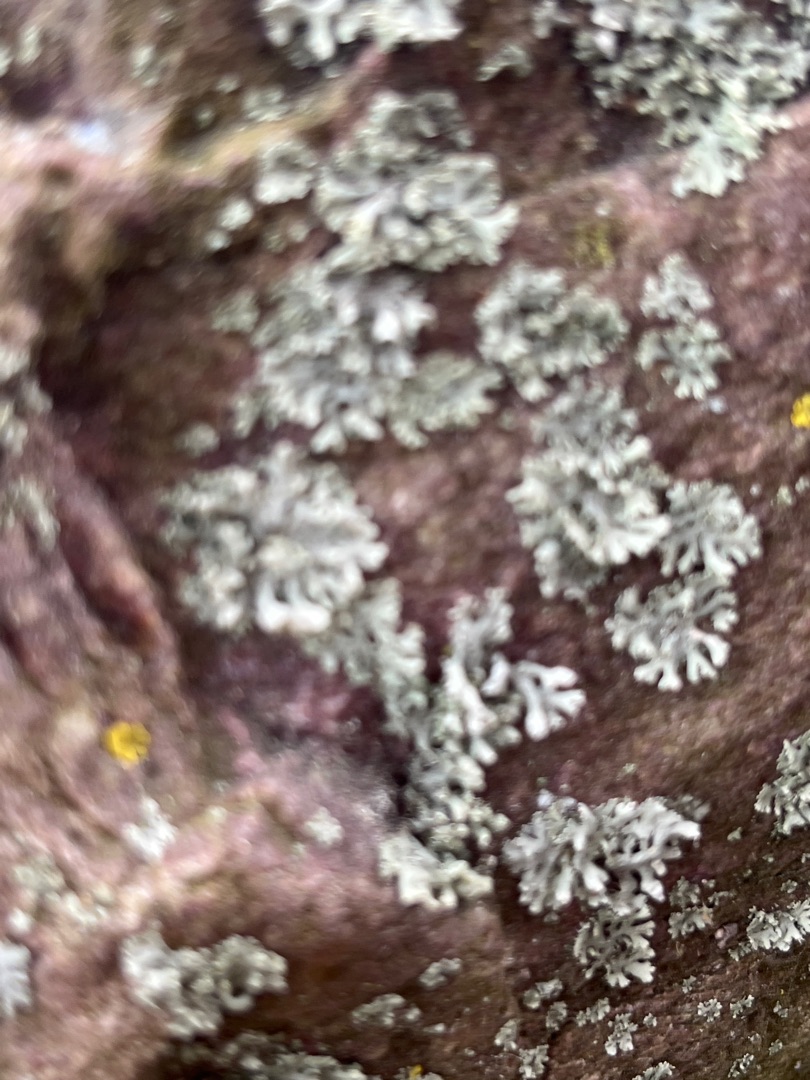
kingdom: Fungi
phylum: Ascomycota
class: Lecanoromycetes
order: Caliciales
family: Physciaceae
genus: Physcia
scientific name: Physcia adscendens
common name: Hætte-rosetlav
